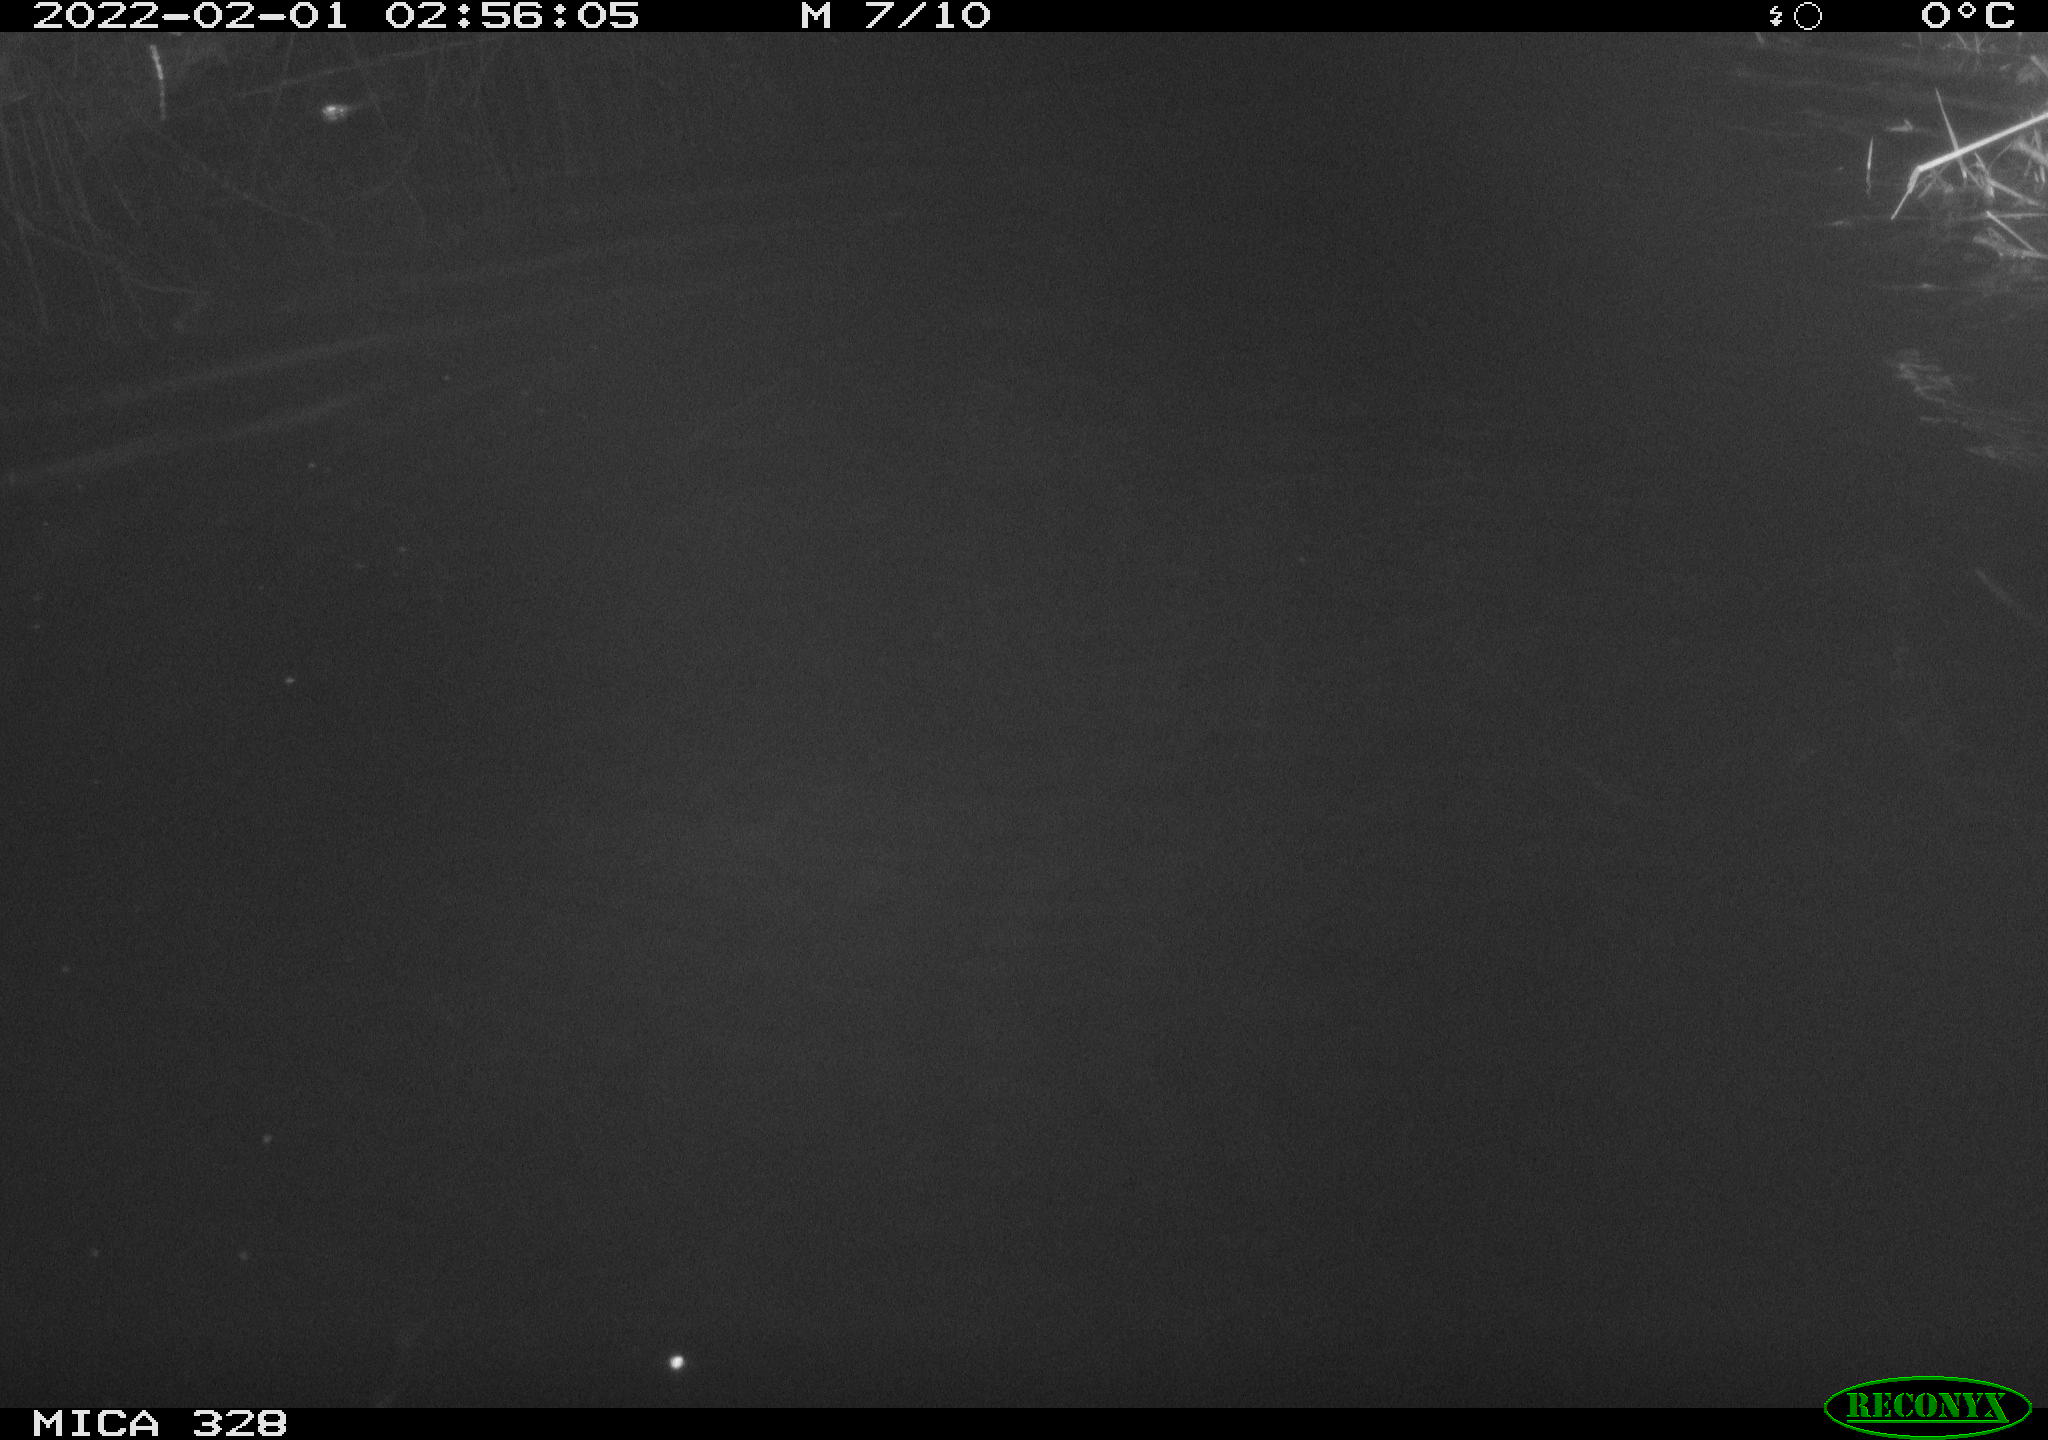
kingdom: Animalia
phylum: Chordata
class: Mammalia
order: Rodentia
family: Cricetidae
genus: Ondatra
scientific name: Ondatra zibethicus
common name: Muskrat
